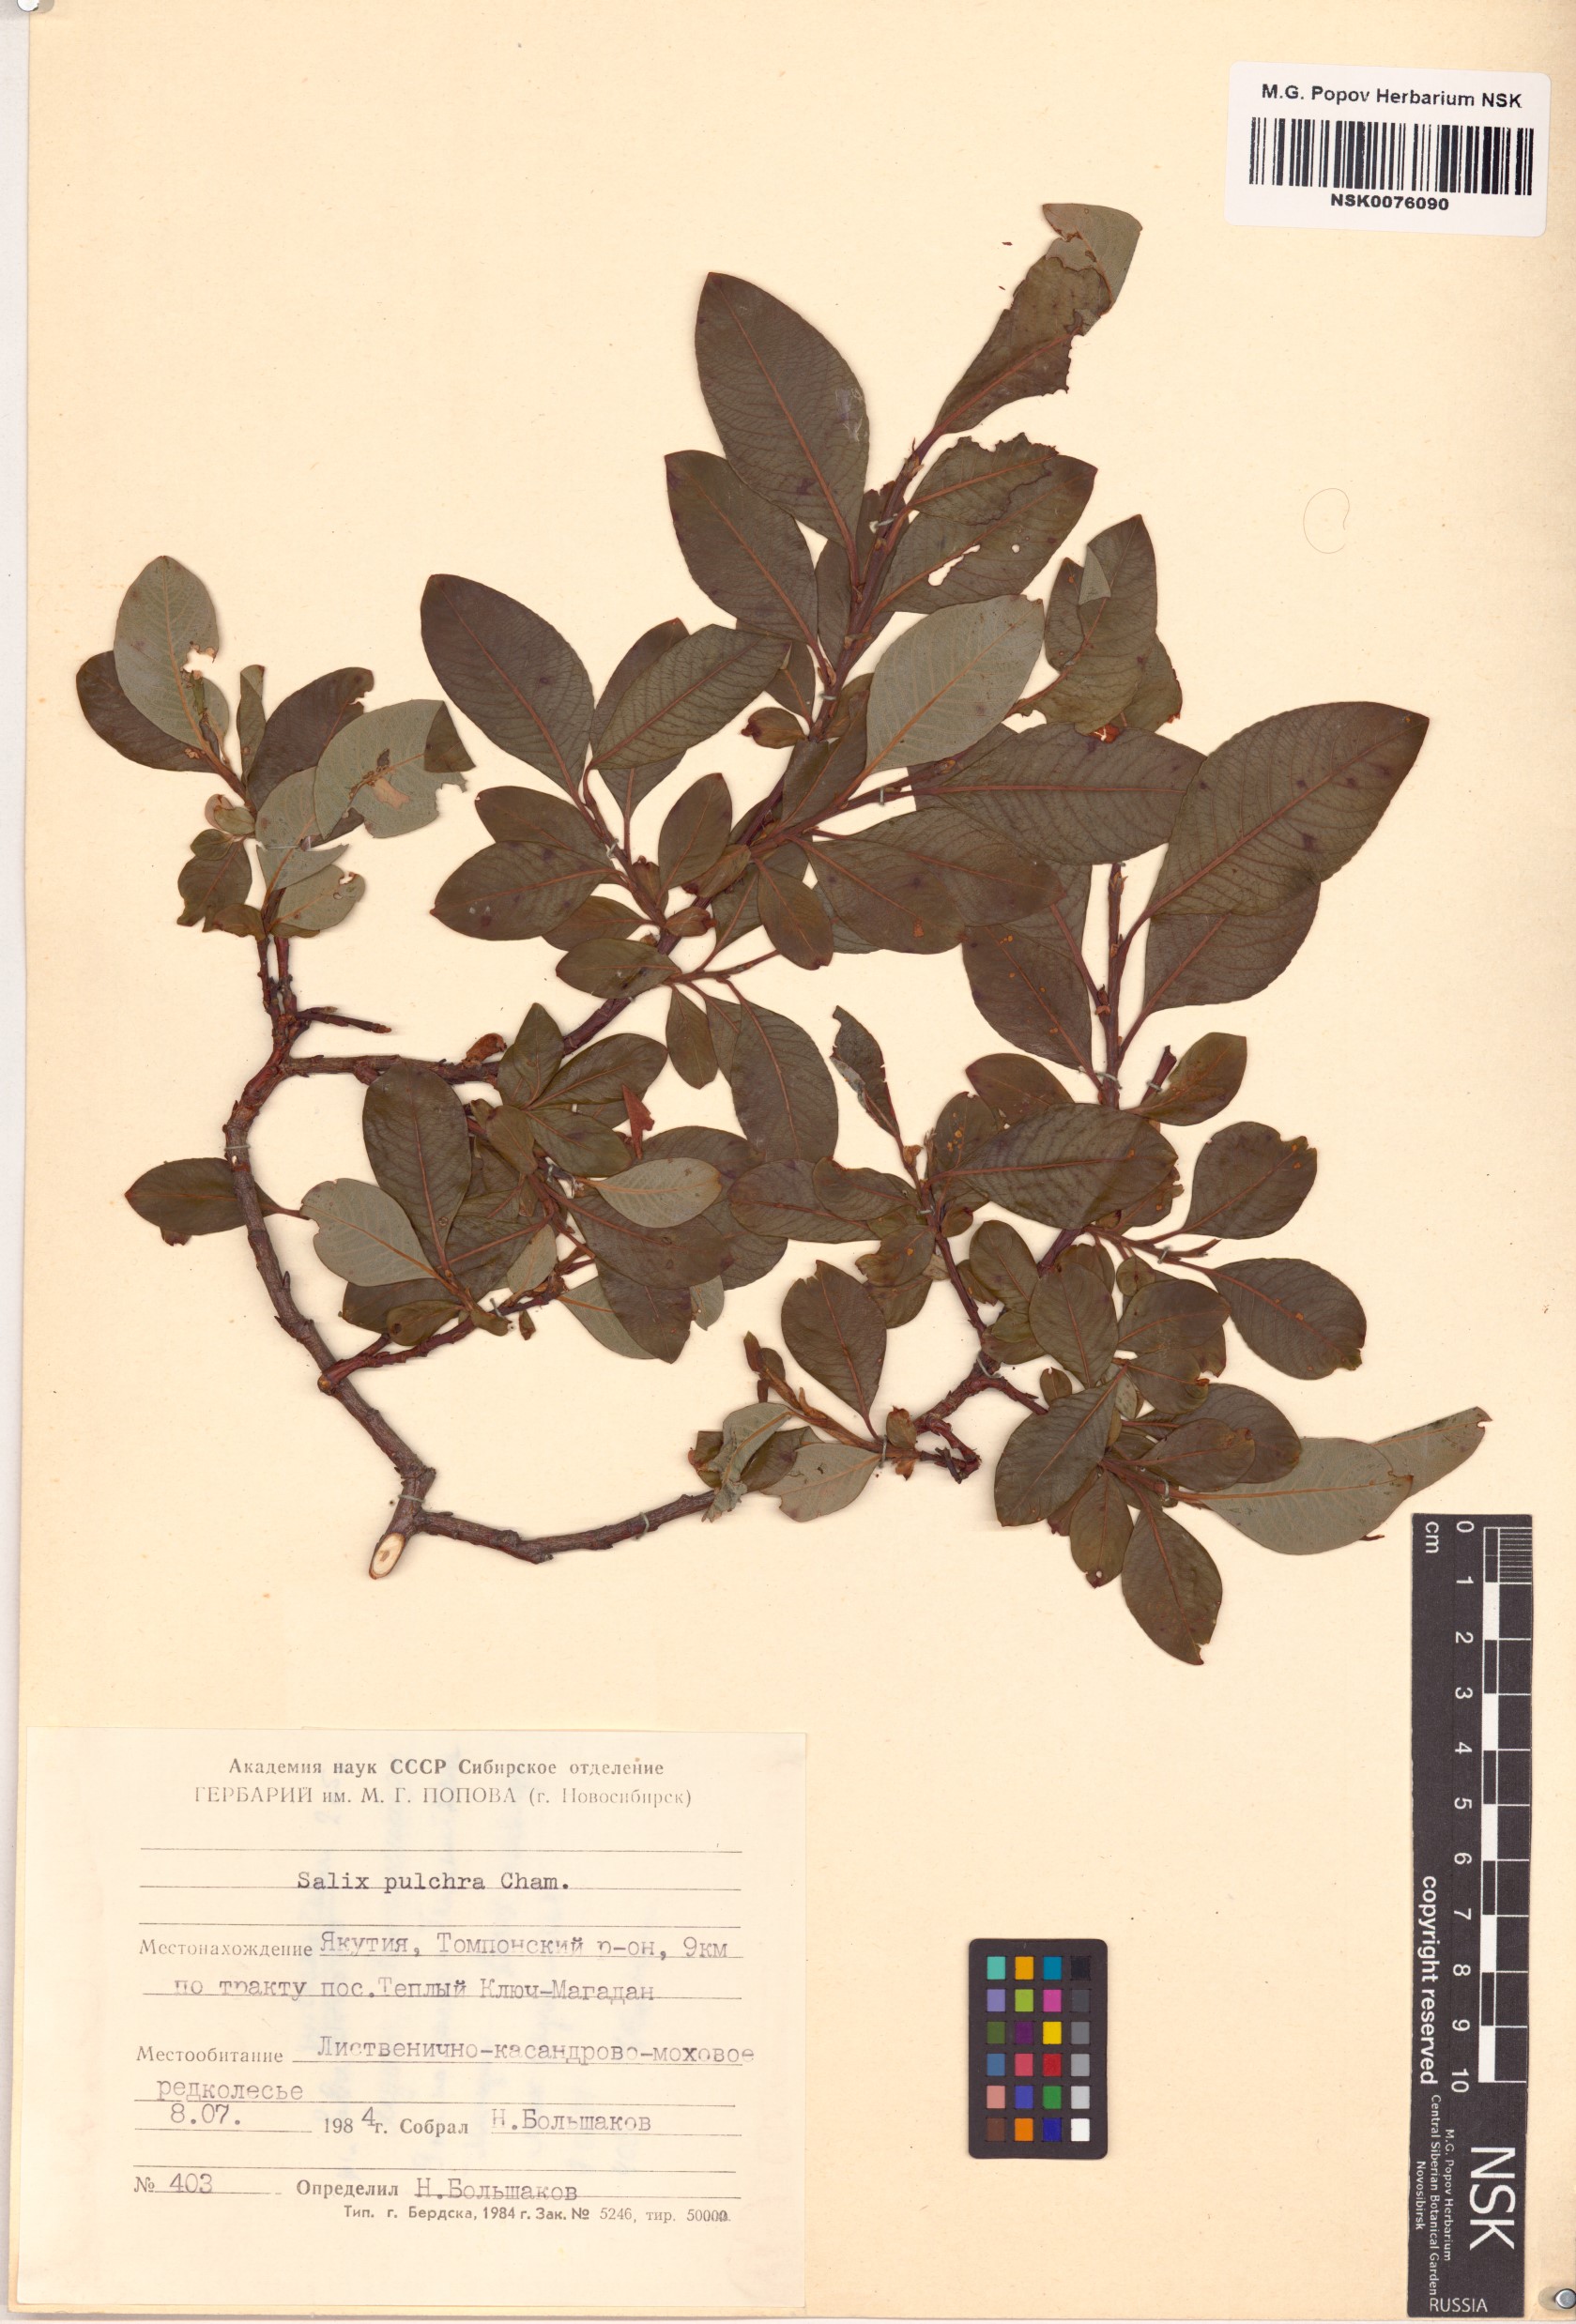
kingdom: Plantae
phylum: Tracheophyta
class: Magnoliopsida
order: Malpighiales
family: Salicaceae
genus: Salix
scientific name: Salix pulchra
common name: Diamond-leaved willow
